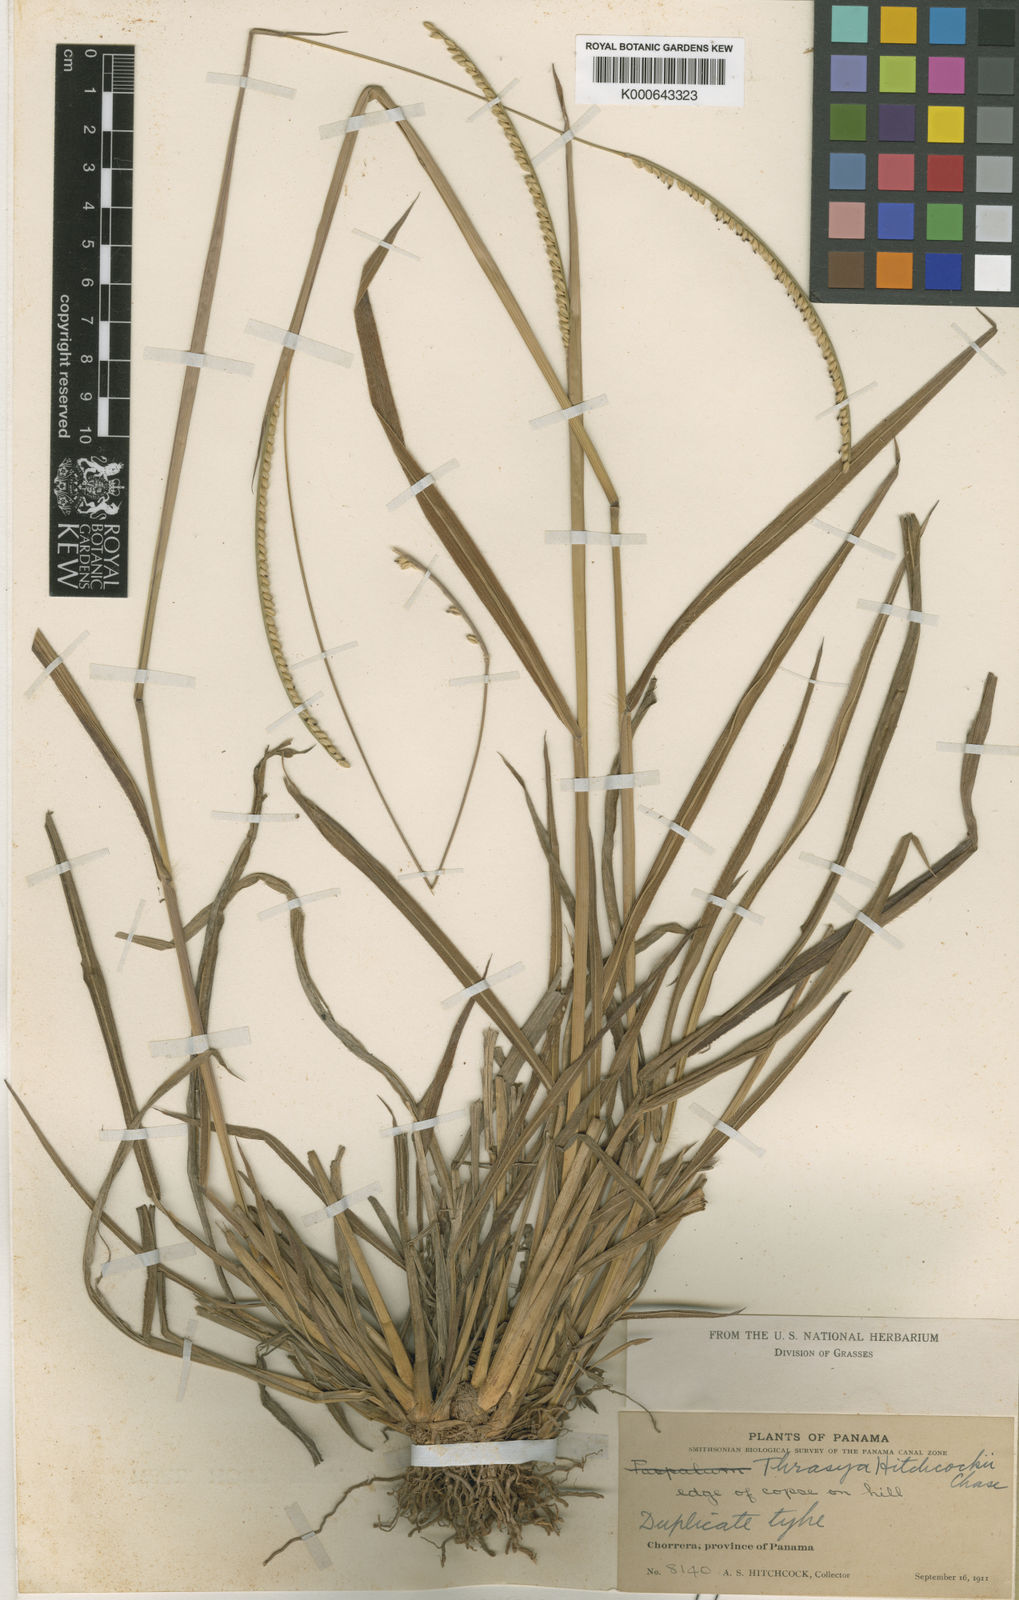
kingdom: Plantae
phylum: Tracheophyta
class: Liliopsida
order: Poales
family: Poaceae
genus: Paspalum
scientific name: Paspalum procerum
